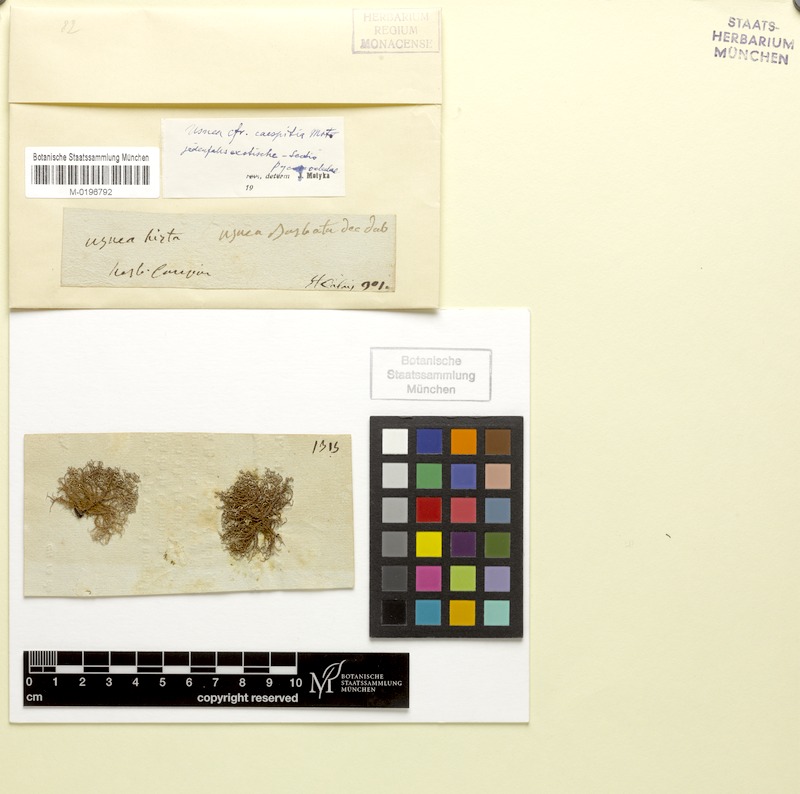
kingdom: Fungi
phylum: Ascomycota
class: Lecanoromycetes
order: Lecanorales
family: Parmeliaceae
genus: Usnea
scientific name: Usnea caespitia
